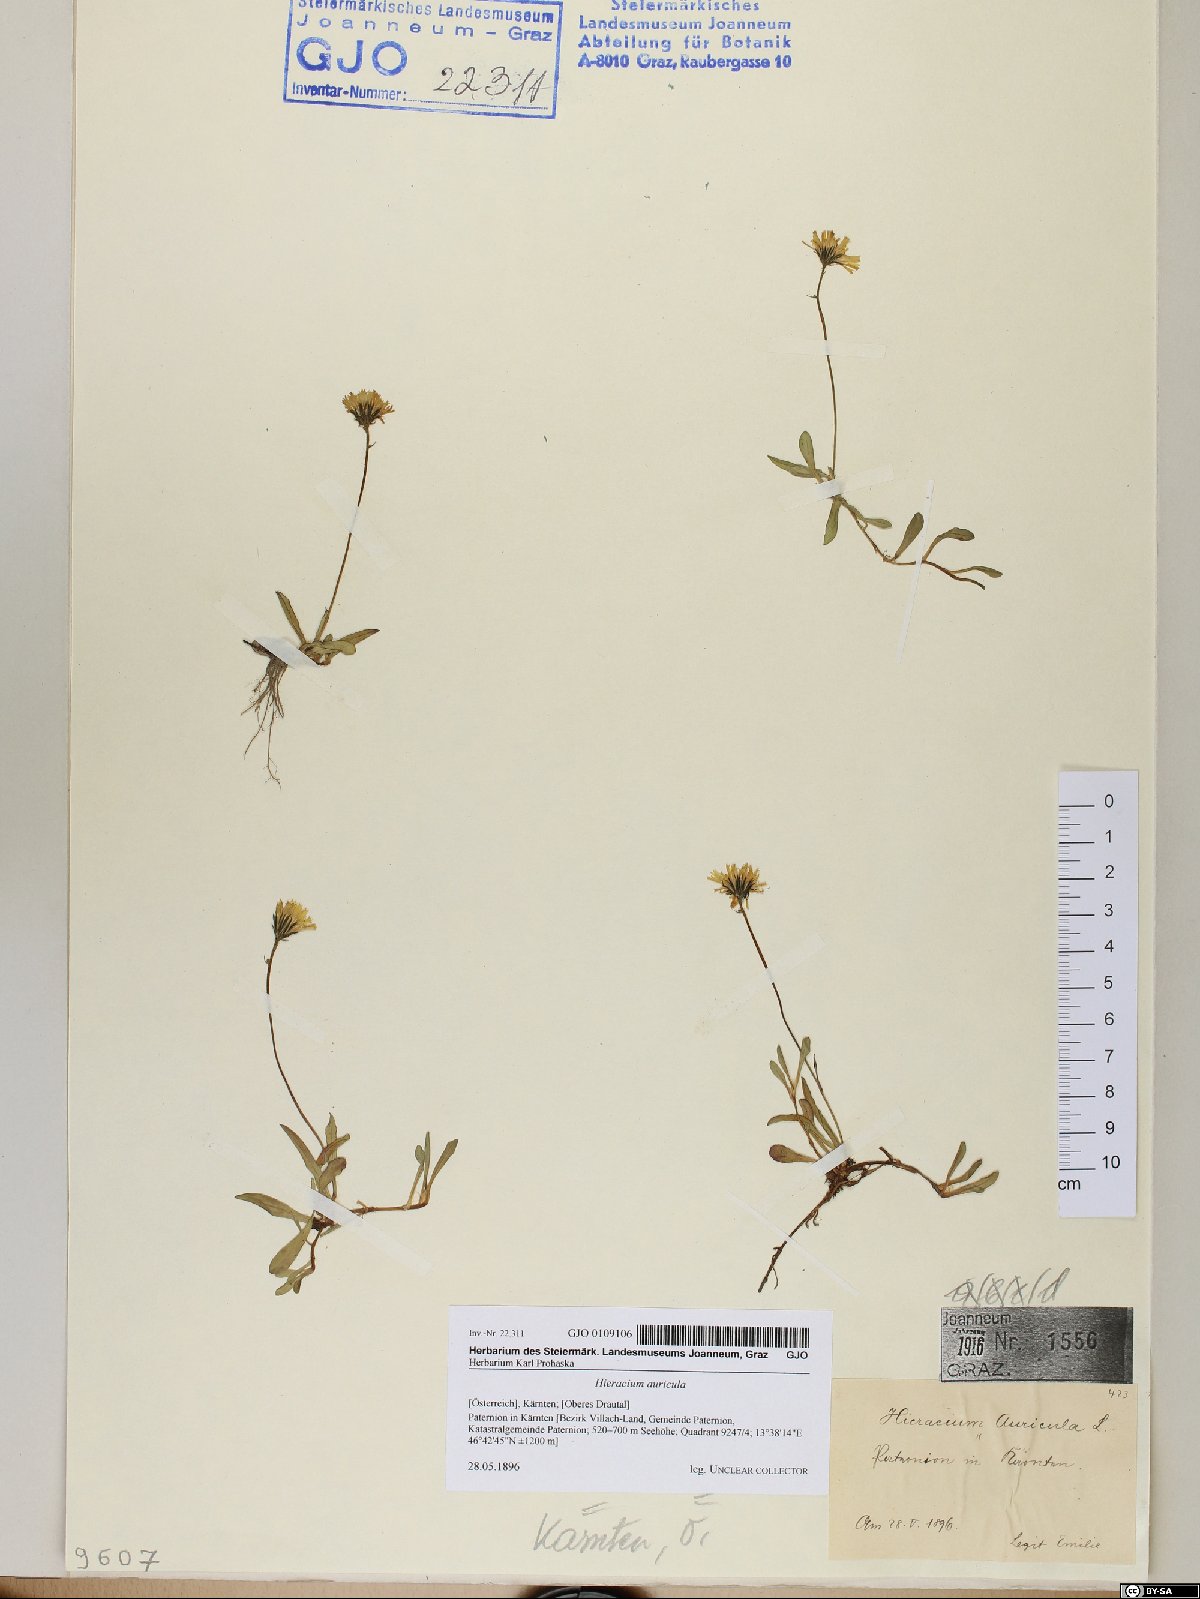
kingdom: Plantae
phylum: Tracheophyta
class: Magnoliopsida
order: Asterales
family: Asteraceae
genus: Hieracium
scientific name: Hieracium auricula
